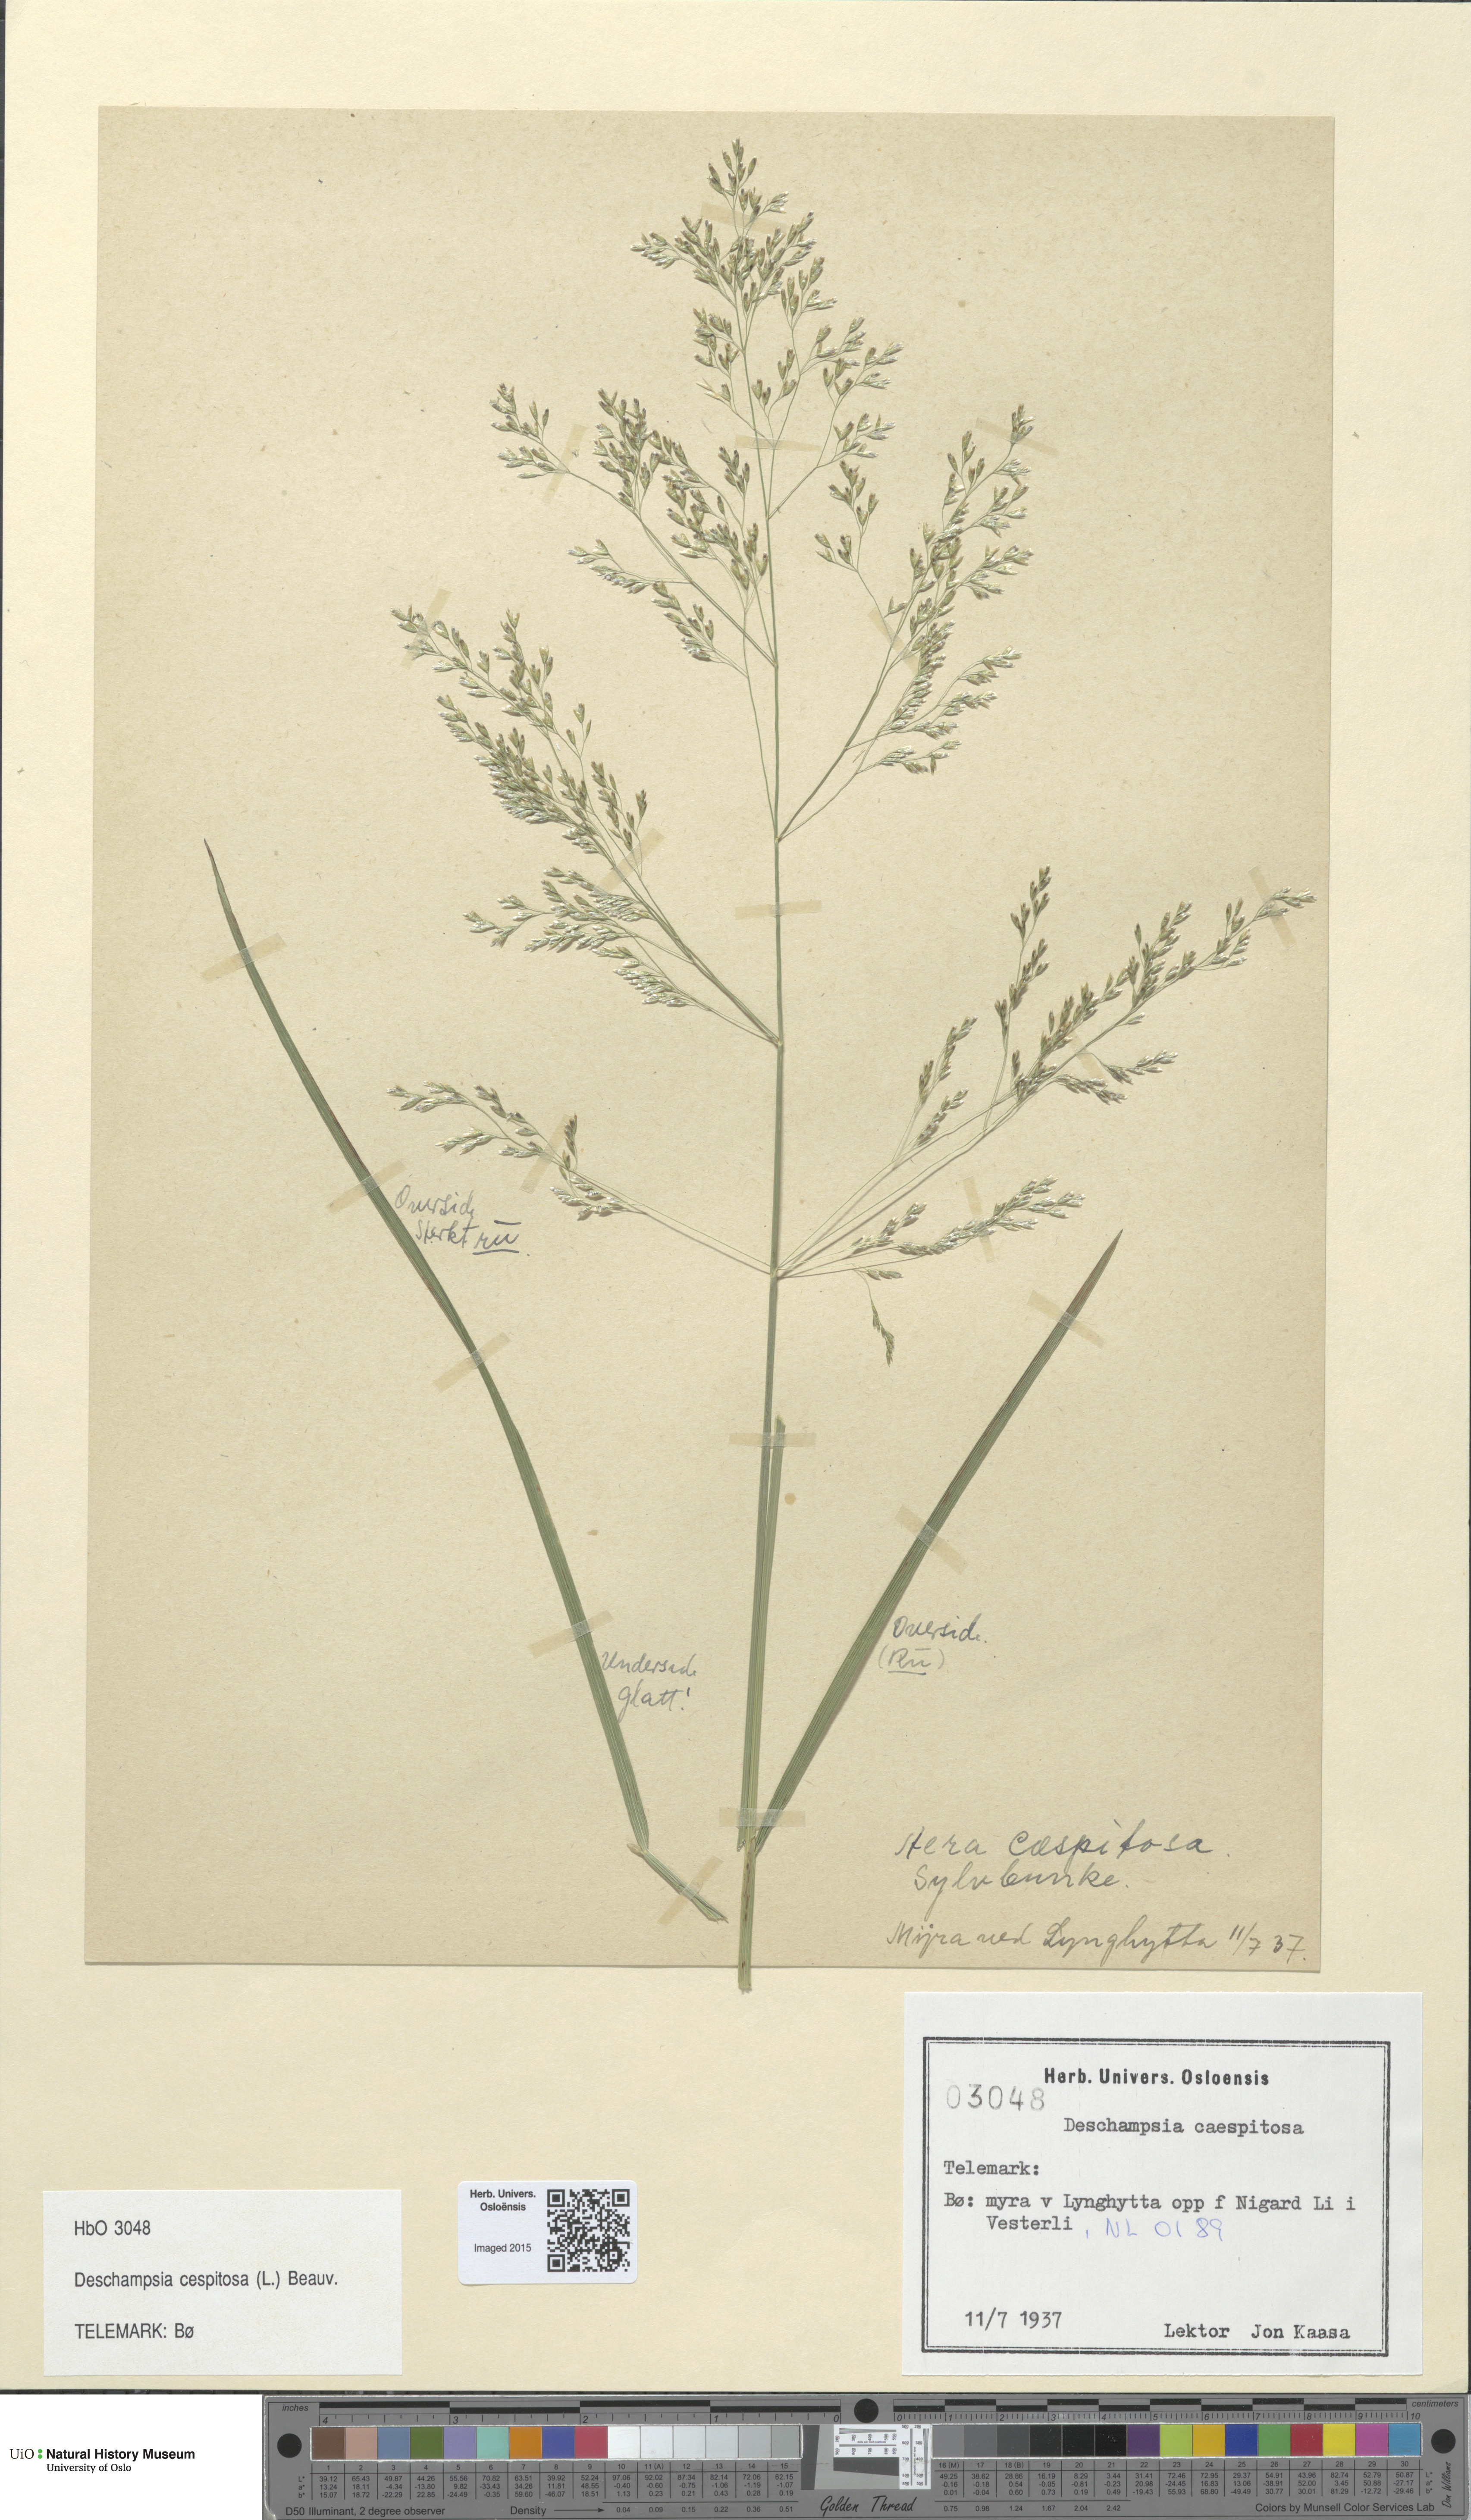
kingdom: Plantae
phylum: Tracheophyta
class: Liliopsida
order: Poales
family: Poaceae
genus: Deschampsia
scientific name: Deschampsia cespitosa
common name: Tufted hair-grass
